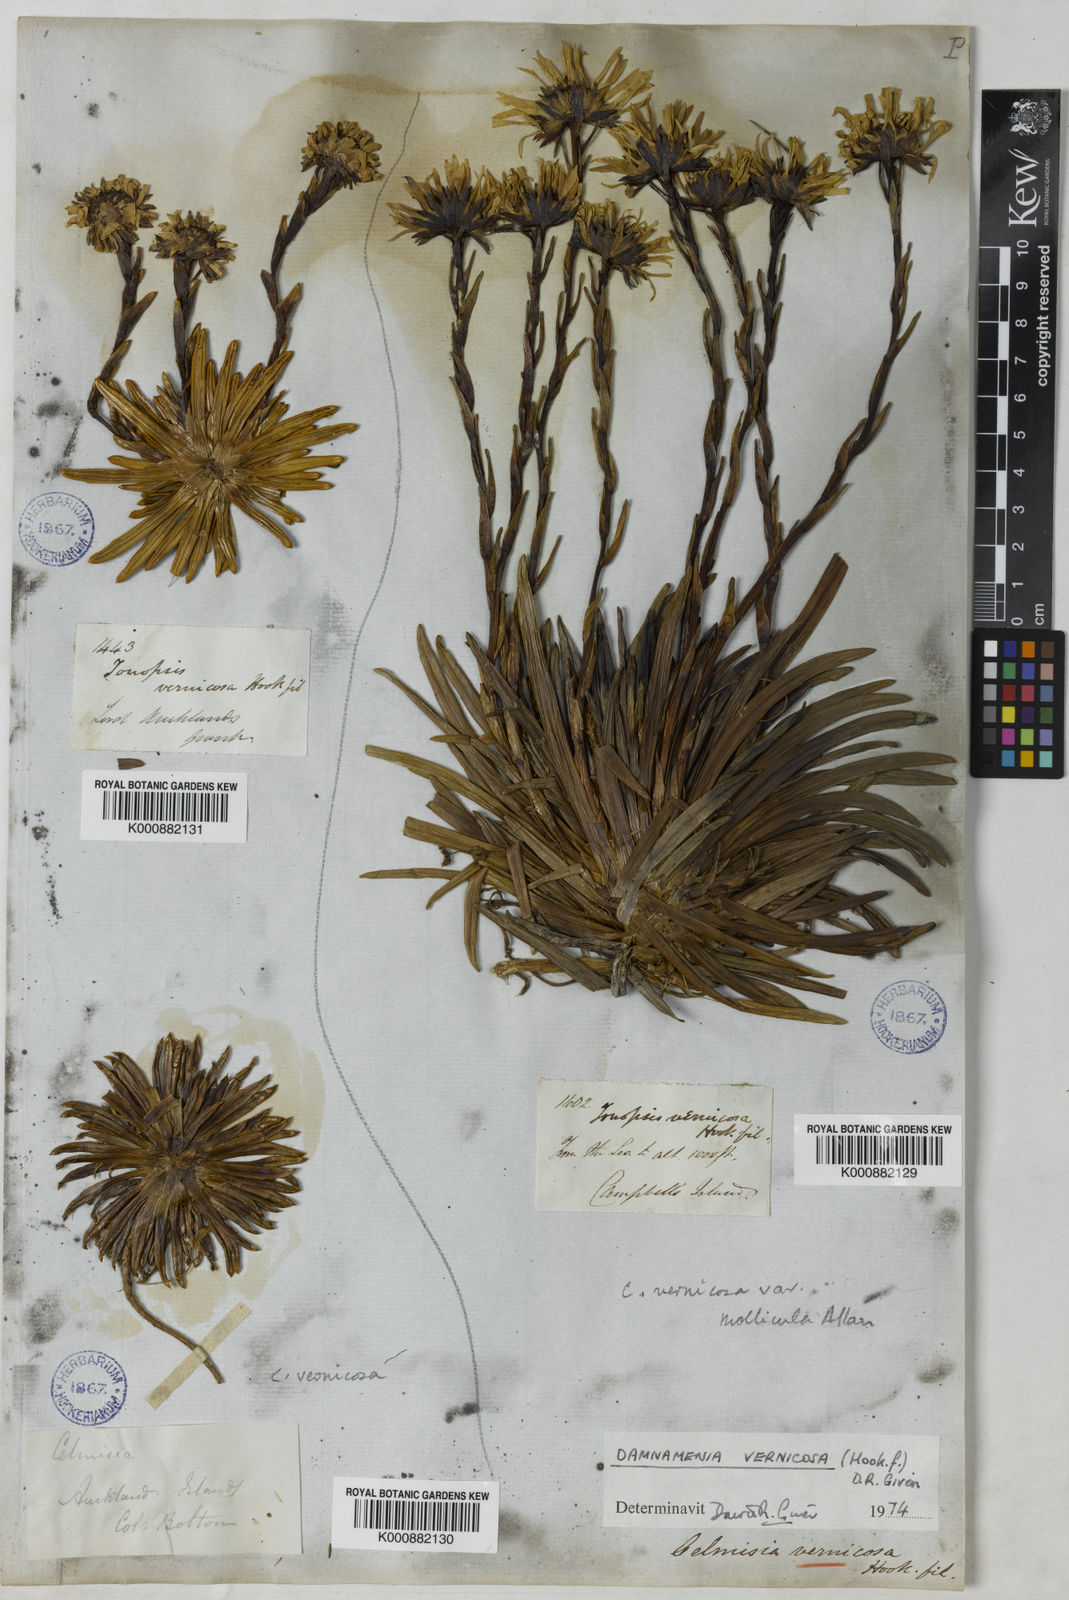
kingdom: Plantae
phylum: Tracheophyta
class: Magnoliopsida
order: Asterales
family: Asteraceae
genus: Damnamenia
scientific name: Damnamenia vernicosa
